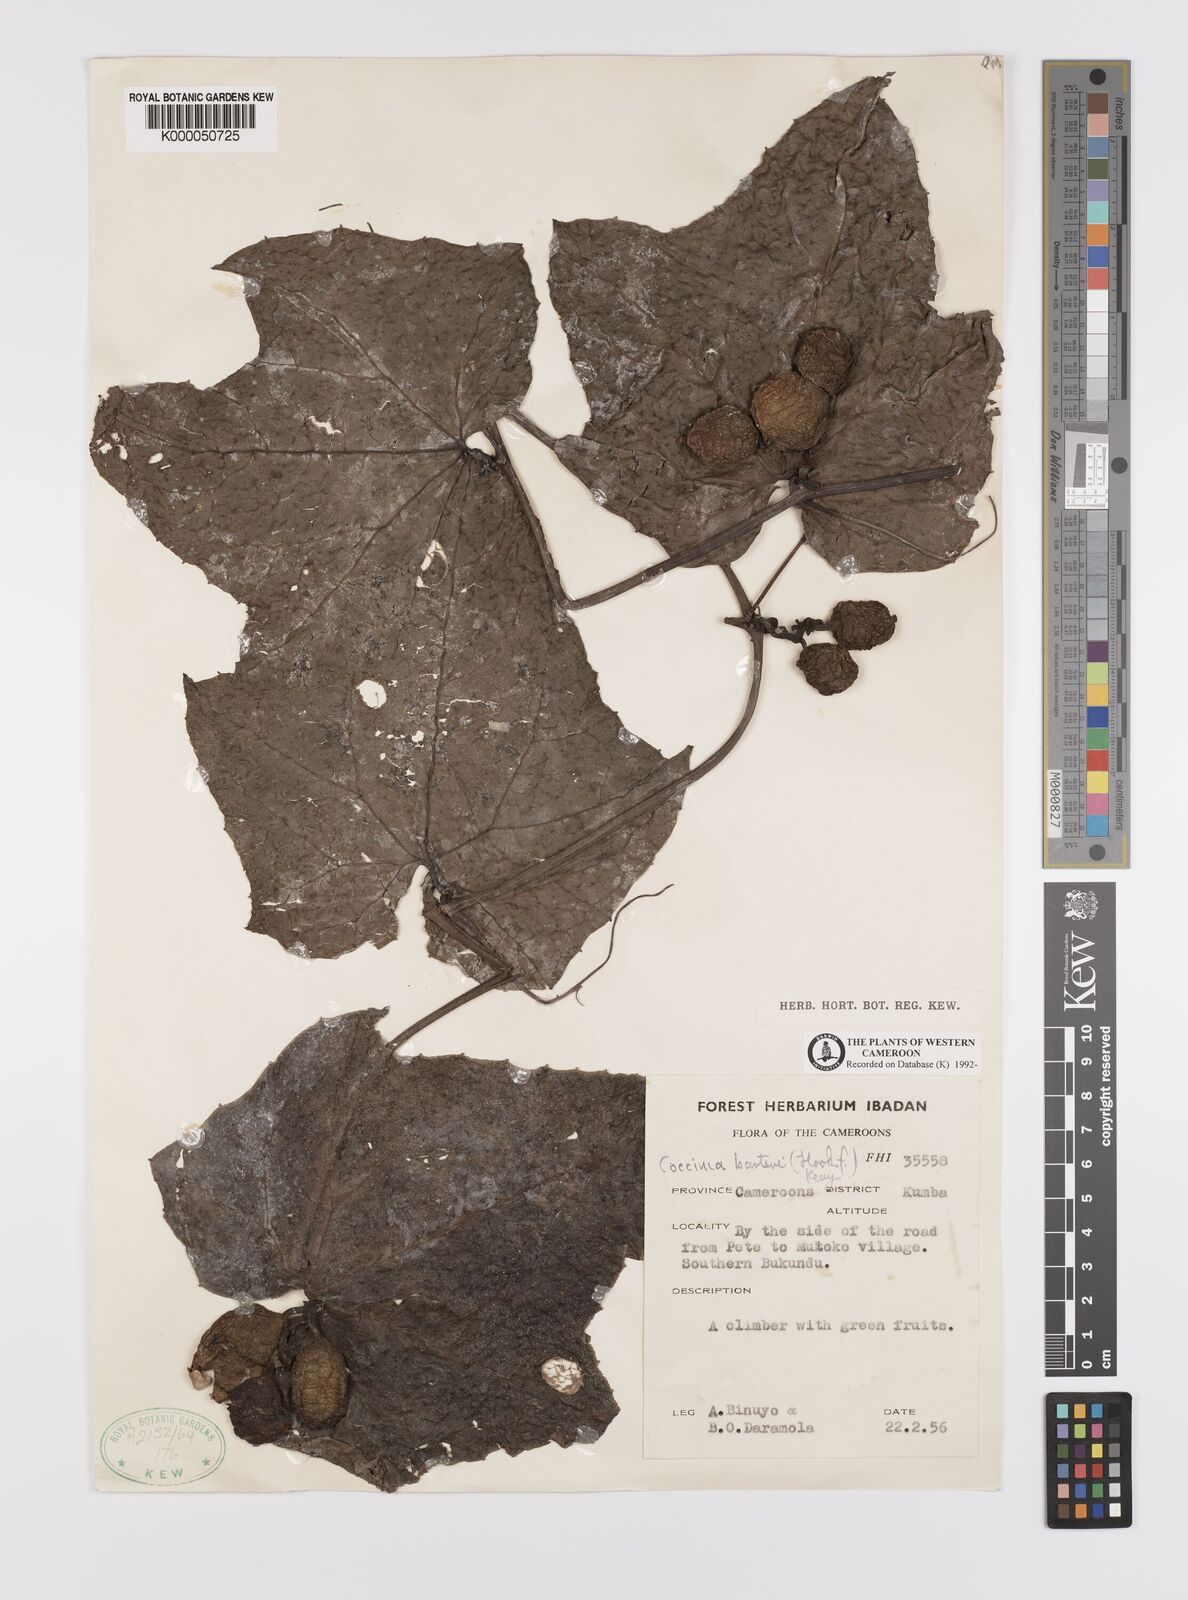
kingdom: Plantae
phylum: Tracheophyta
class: Magnoliopsida
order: Cucurbitales
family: Cucurbitaceae
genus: Coccinia
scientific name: Coccinia barteri
